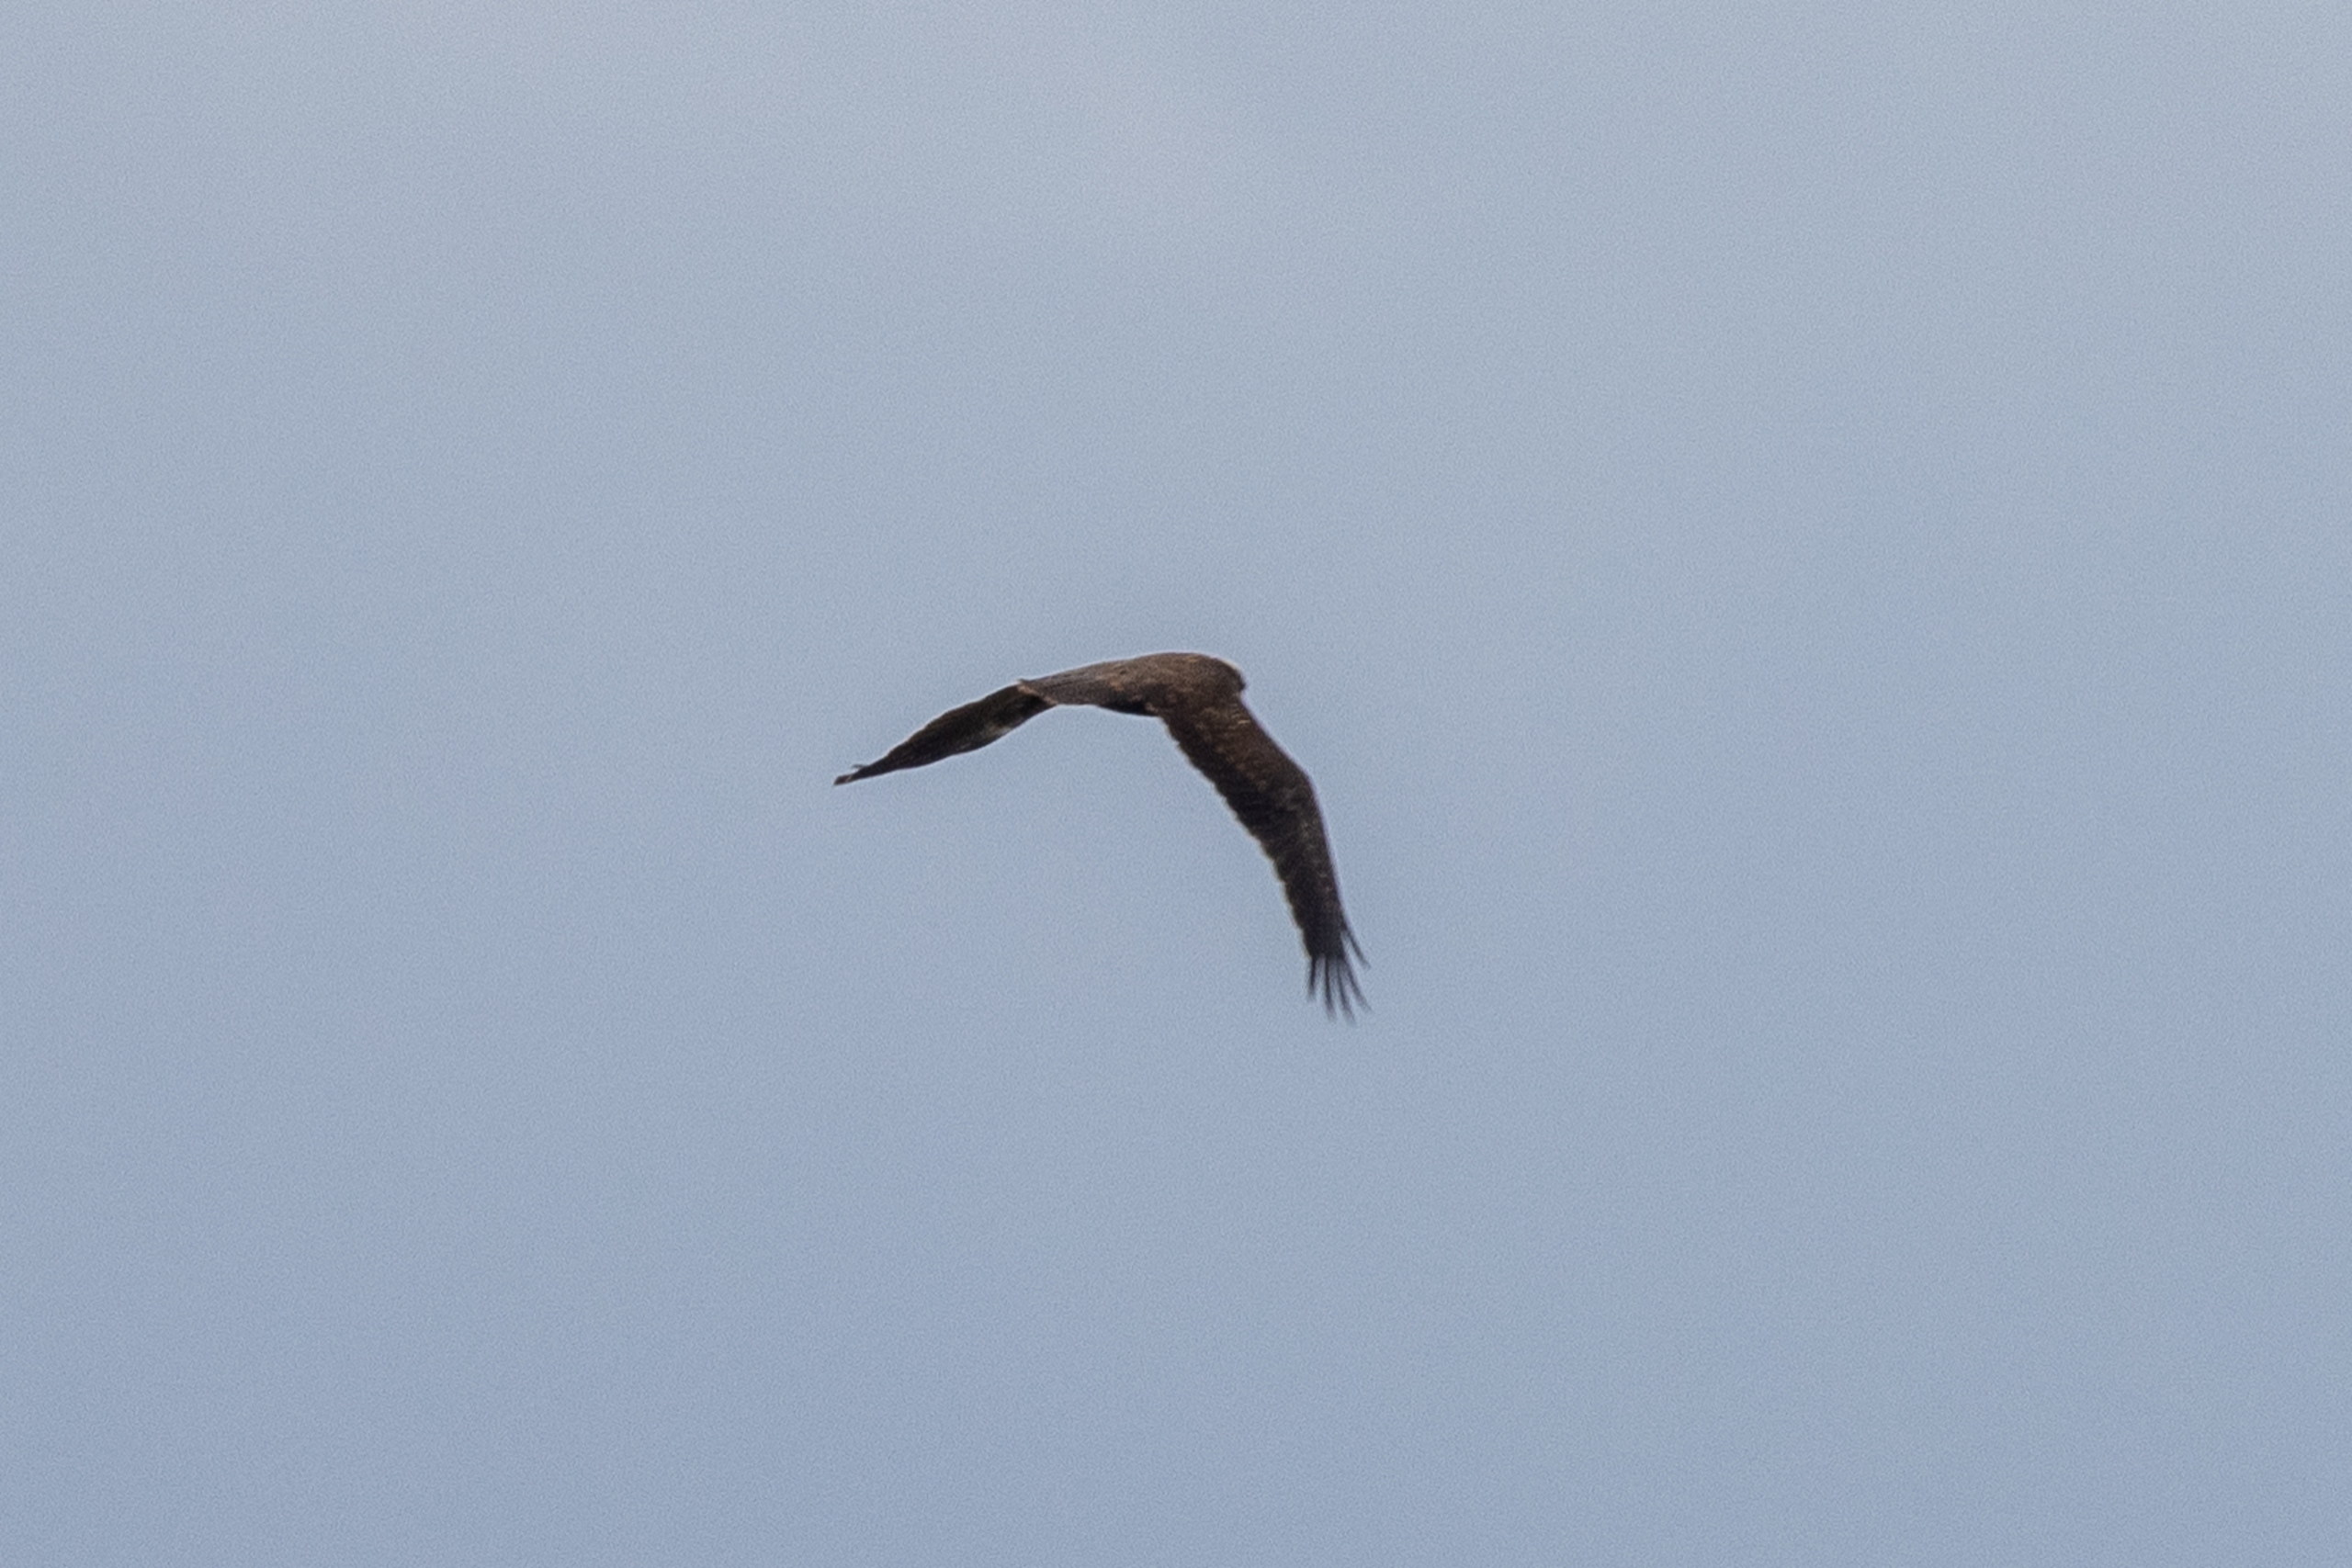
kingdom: Animalia
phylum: Chordata
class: Aves
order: Accipitriformes
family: Accipitridae
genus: Circus
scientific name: Circus aeruginosus
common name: Rørhøg
